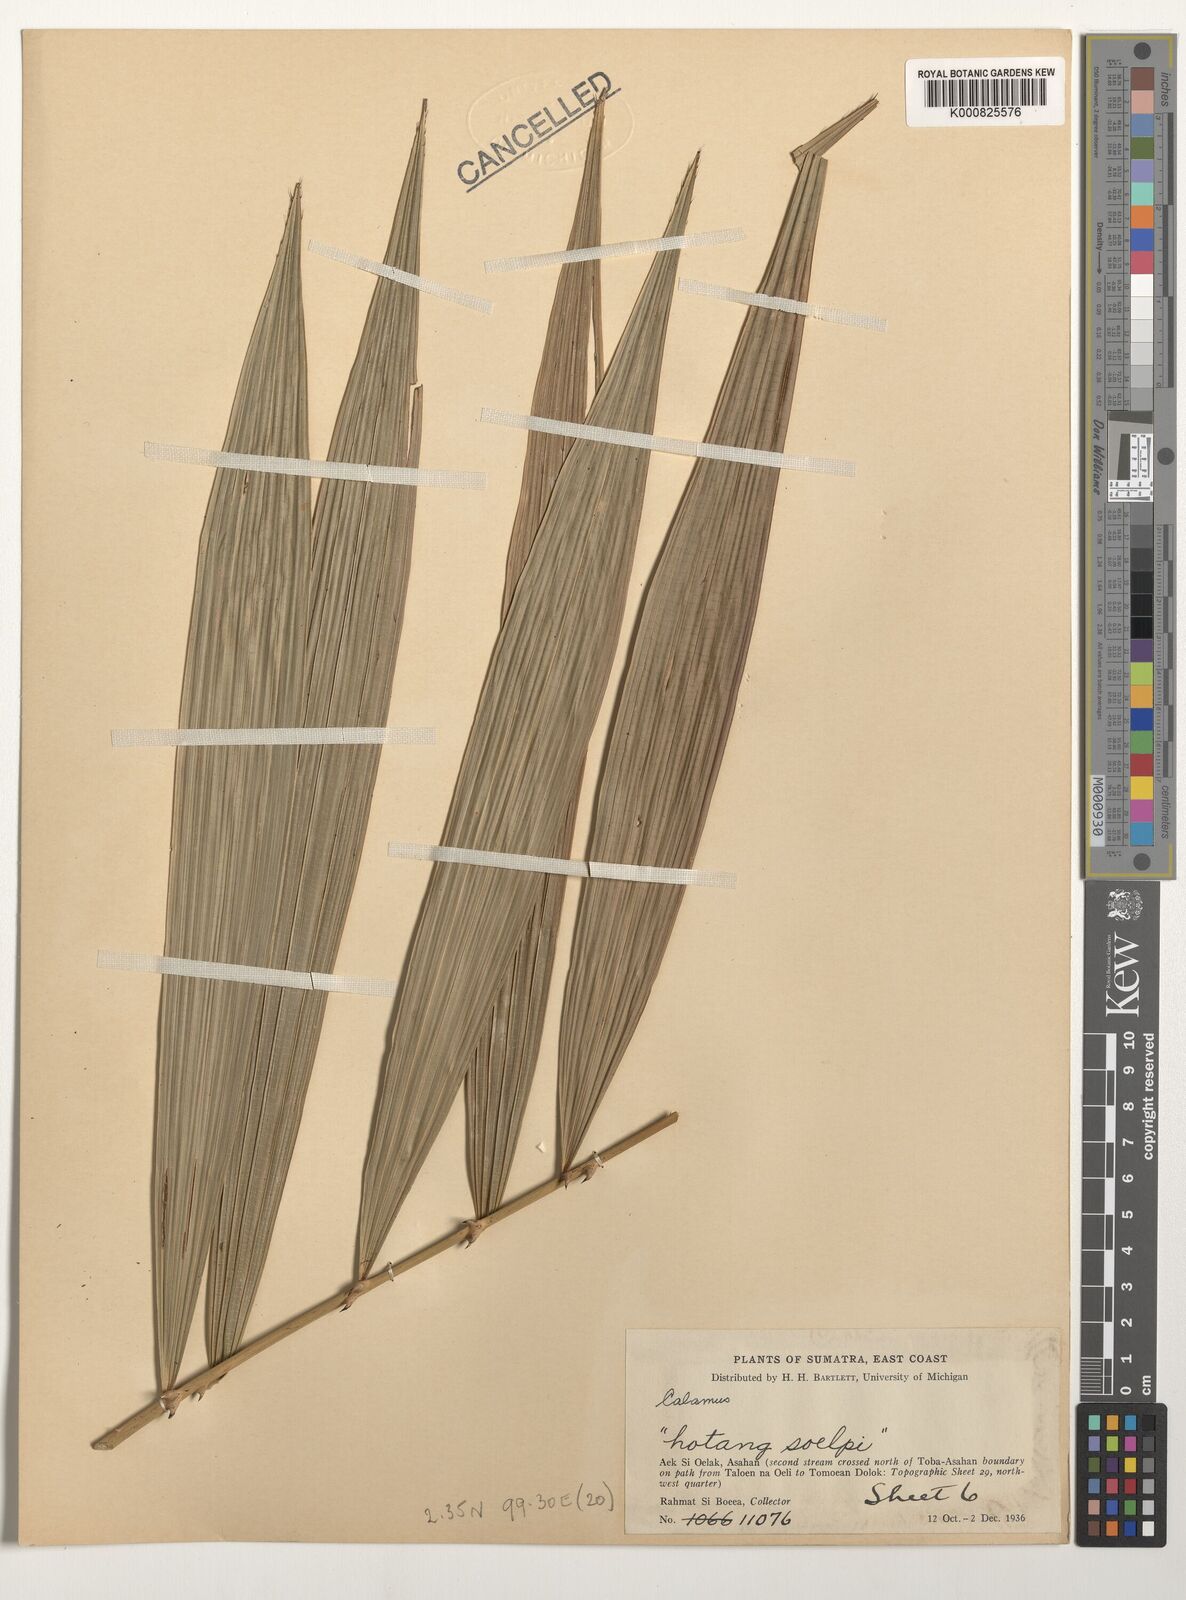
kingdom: Plantae
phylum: Tracheophyta
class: Liliopsida
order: Arecales
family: Arecaceae
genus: Calamus
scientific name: Calamus
